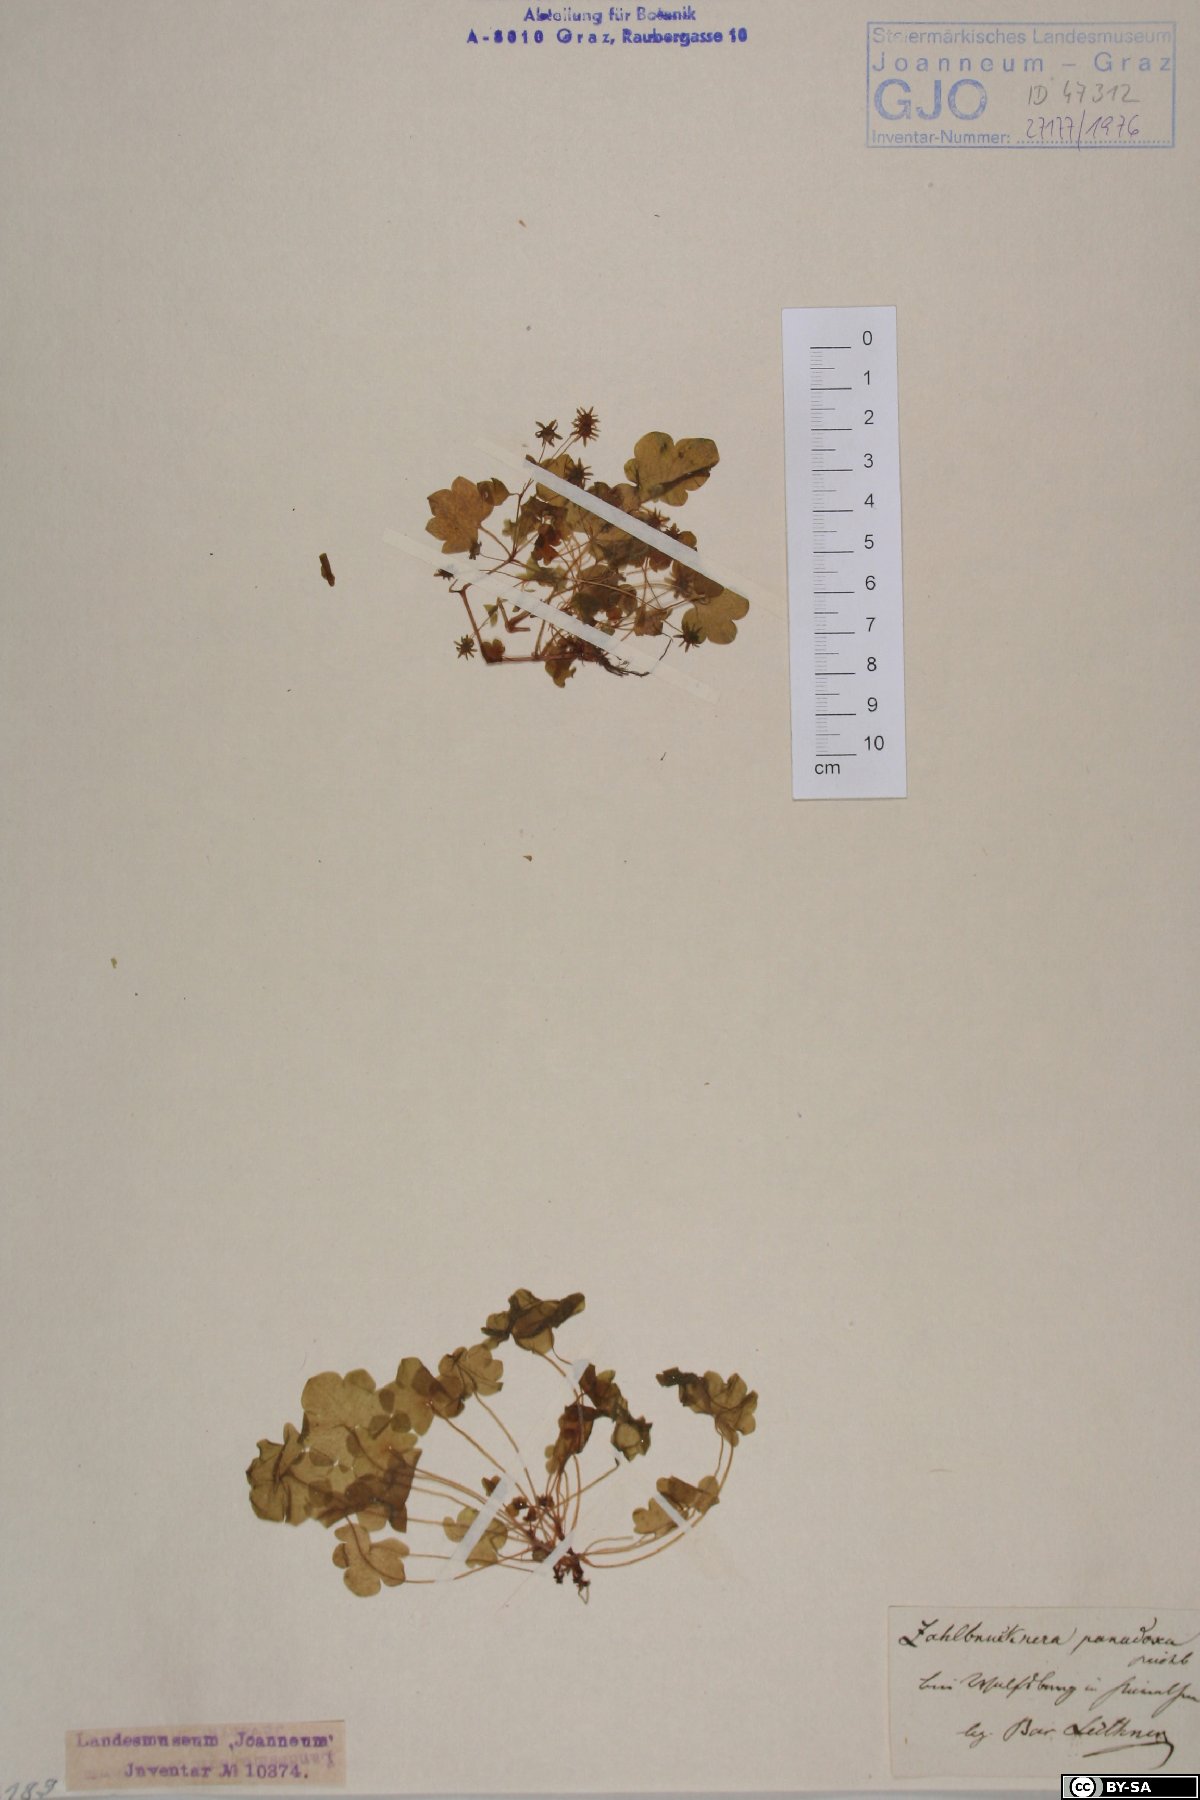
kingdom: Plantae
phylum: Tracheophyta
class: Magnoliopsida
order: Saxifragales
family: Saxifragaceae
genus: Saxifraga
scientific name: Saxifraga paradoxa
